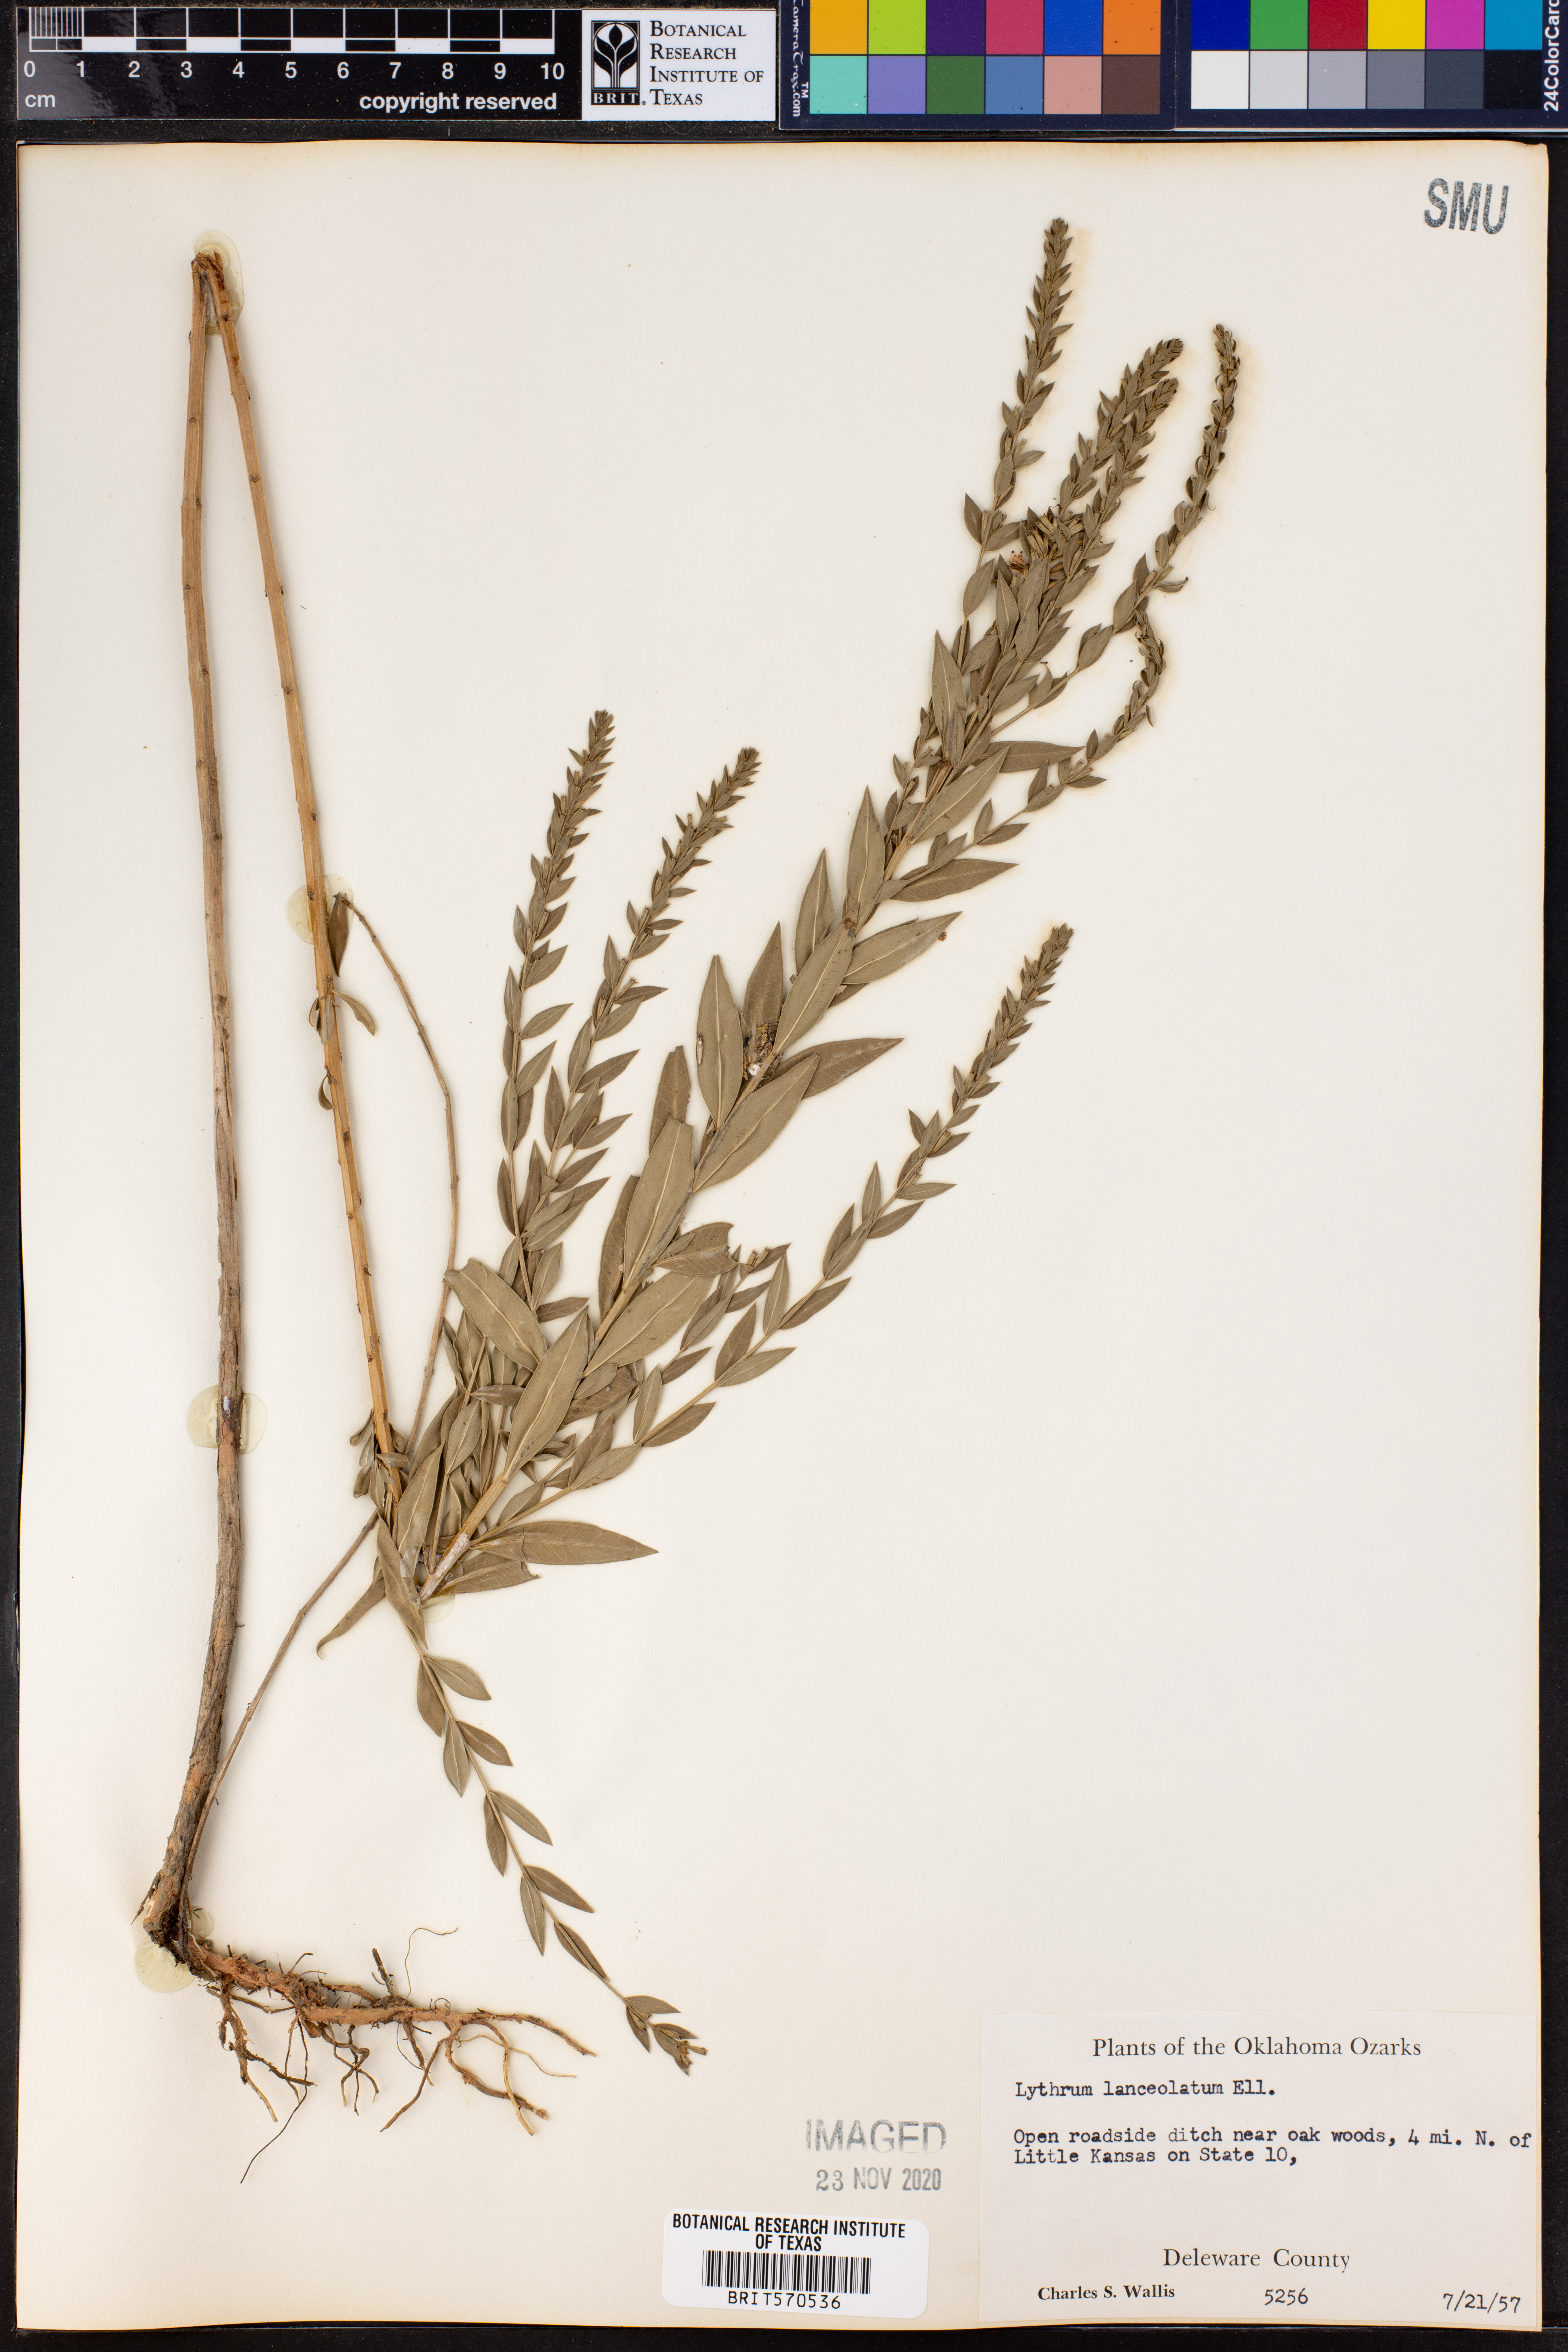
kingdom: Plantae
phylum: Tracheophyta
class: Magnoliopsida
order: Myrtales
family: Lythraceae
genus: Lythrum
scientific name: Lythrum alatum
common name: Winged loosestrife
